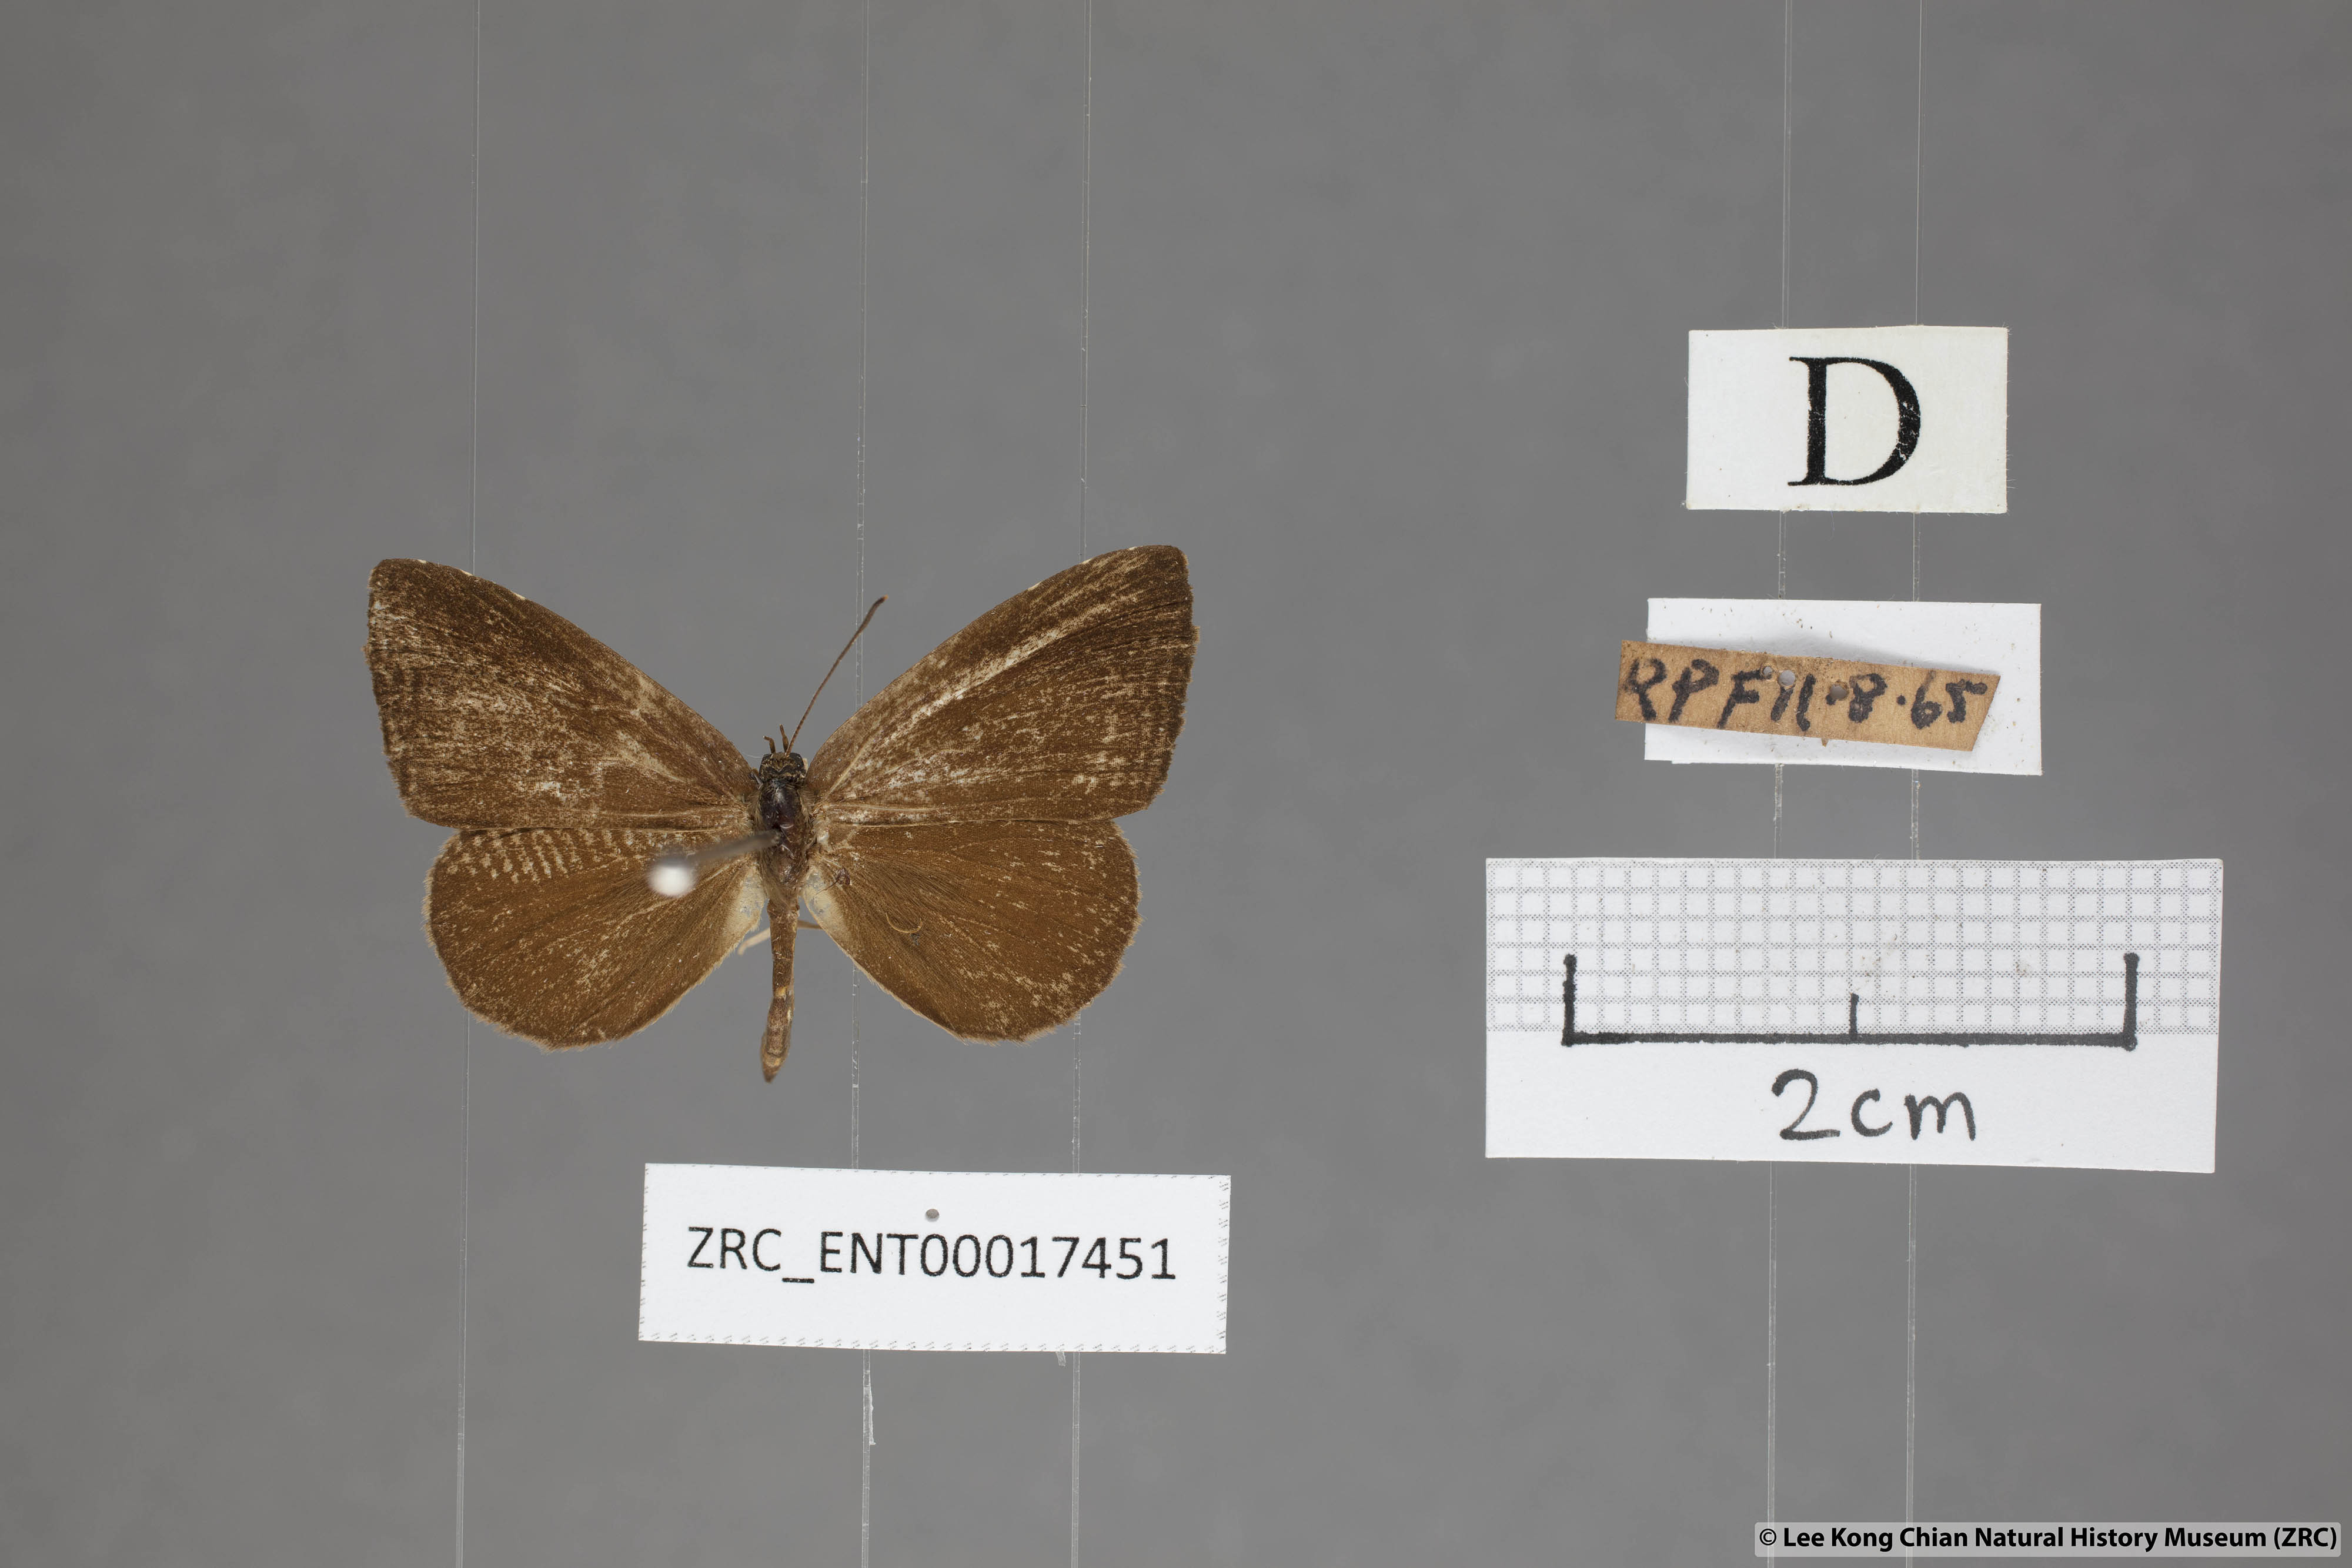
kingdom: Animalia
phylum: Arthropoda
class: Insecta
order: Lepidoptera
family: Lycaenidae
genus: Miletus
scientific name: Miletus gaesa
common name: Brown brownie
